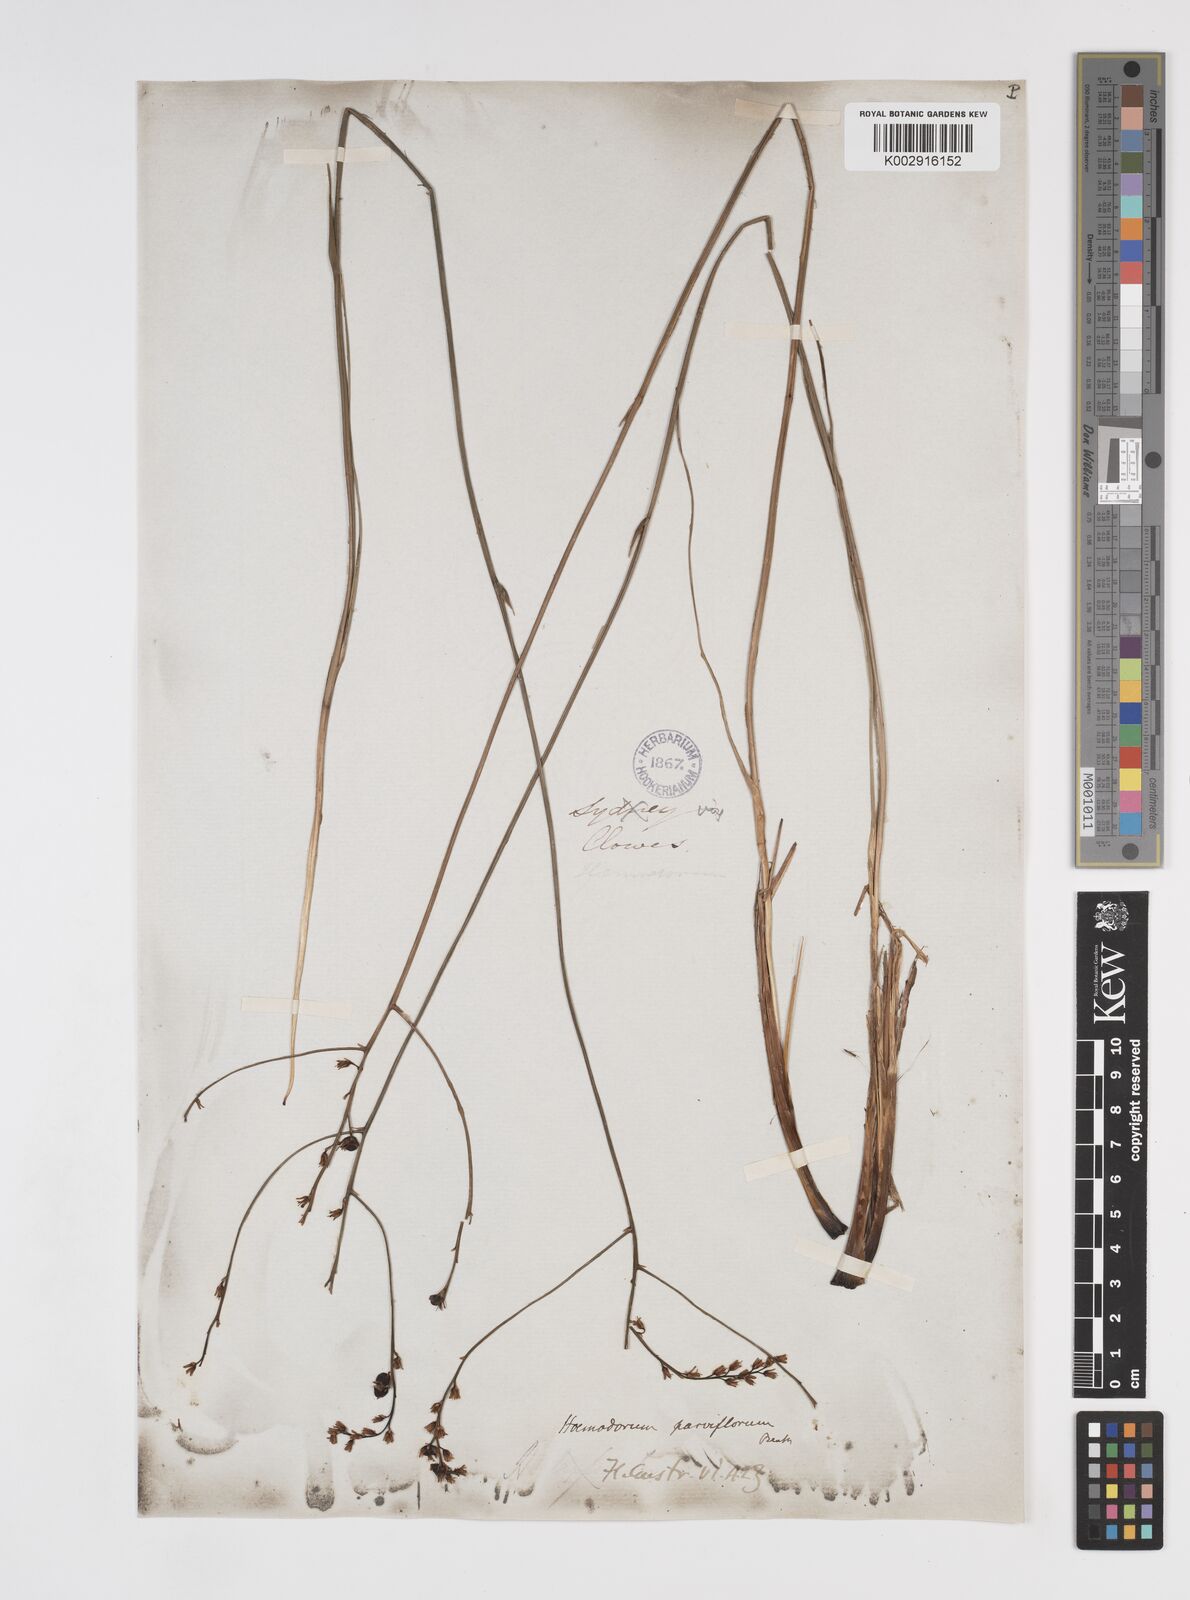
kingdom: Plantae
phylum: Tracheophyta
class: Liliopsida
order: Commelinales
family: Haemodoraceae
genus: Haemodorum
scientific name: Haemodorum parviflorum
